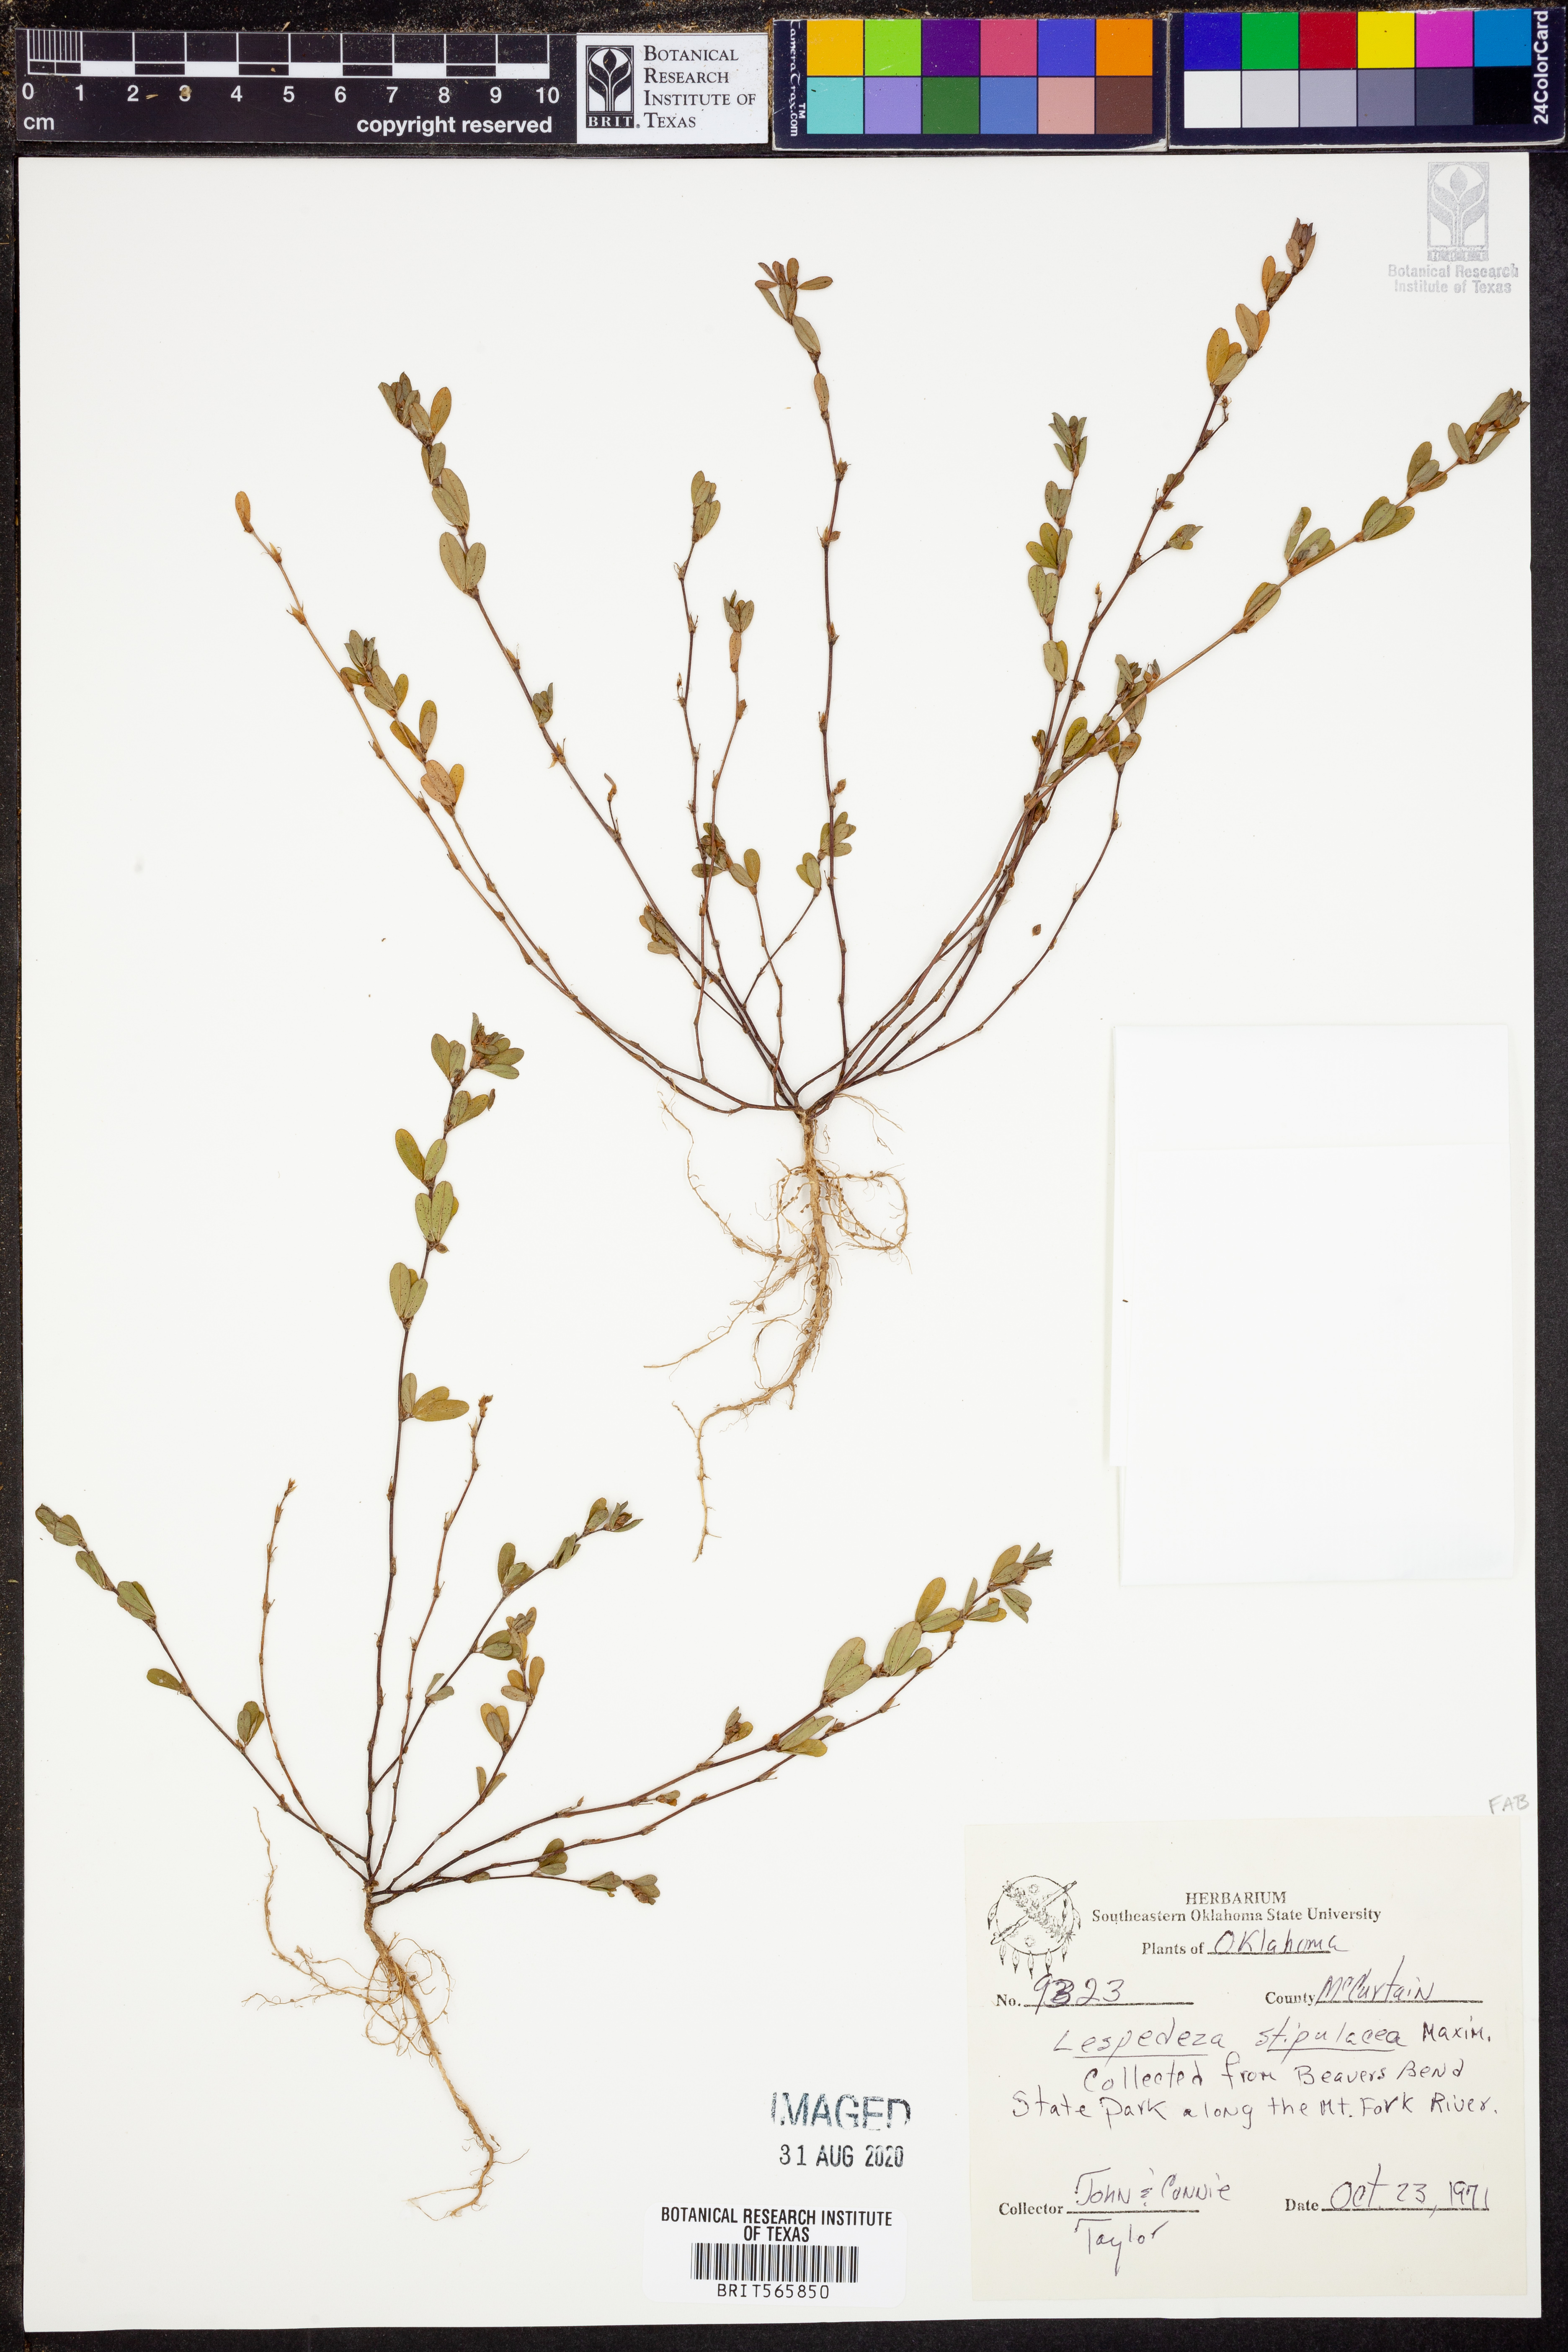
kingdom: Plantae
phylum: Tracheophyta
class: Magnoliopsida
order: Fabales
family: Fabaceae
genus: Kummerowia
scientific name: Kummerowia stipulacea
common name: Korean clover
